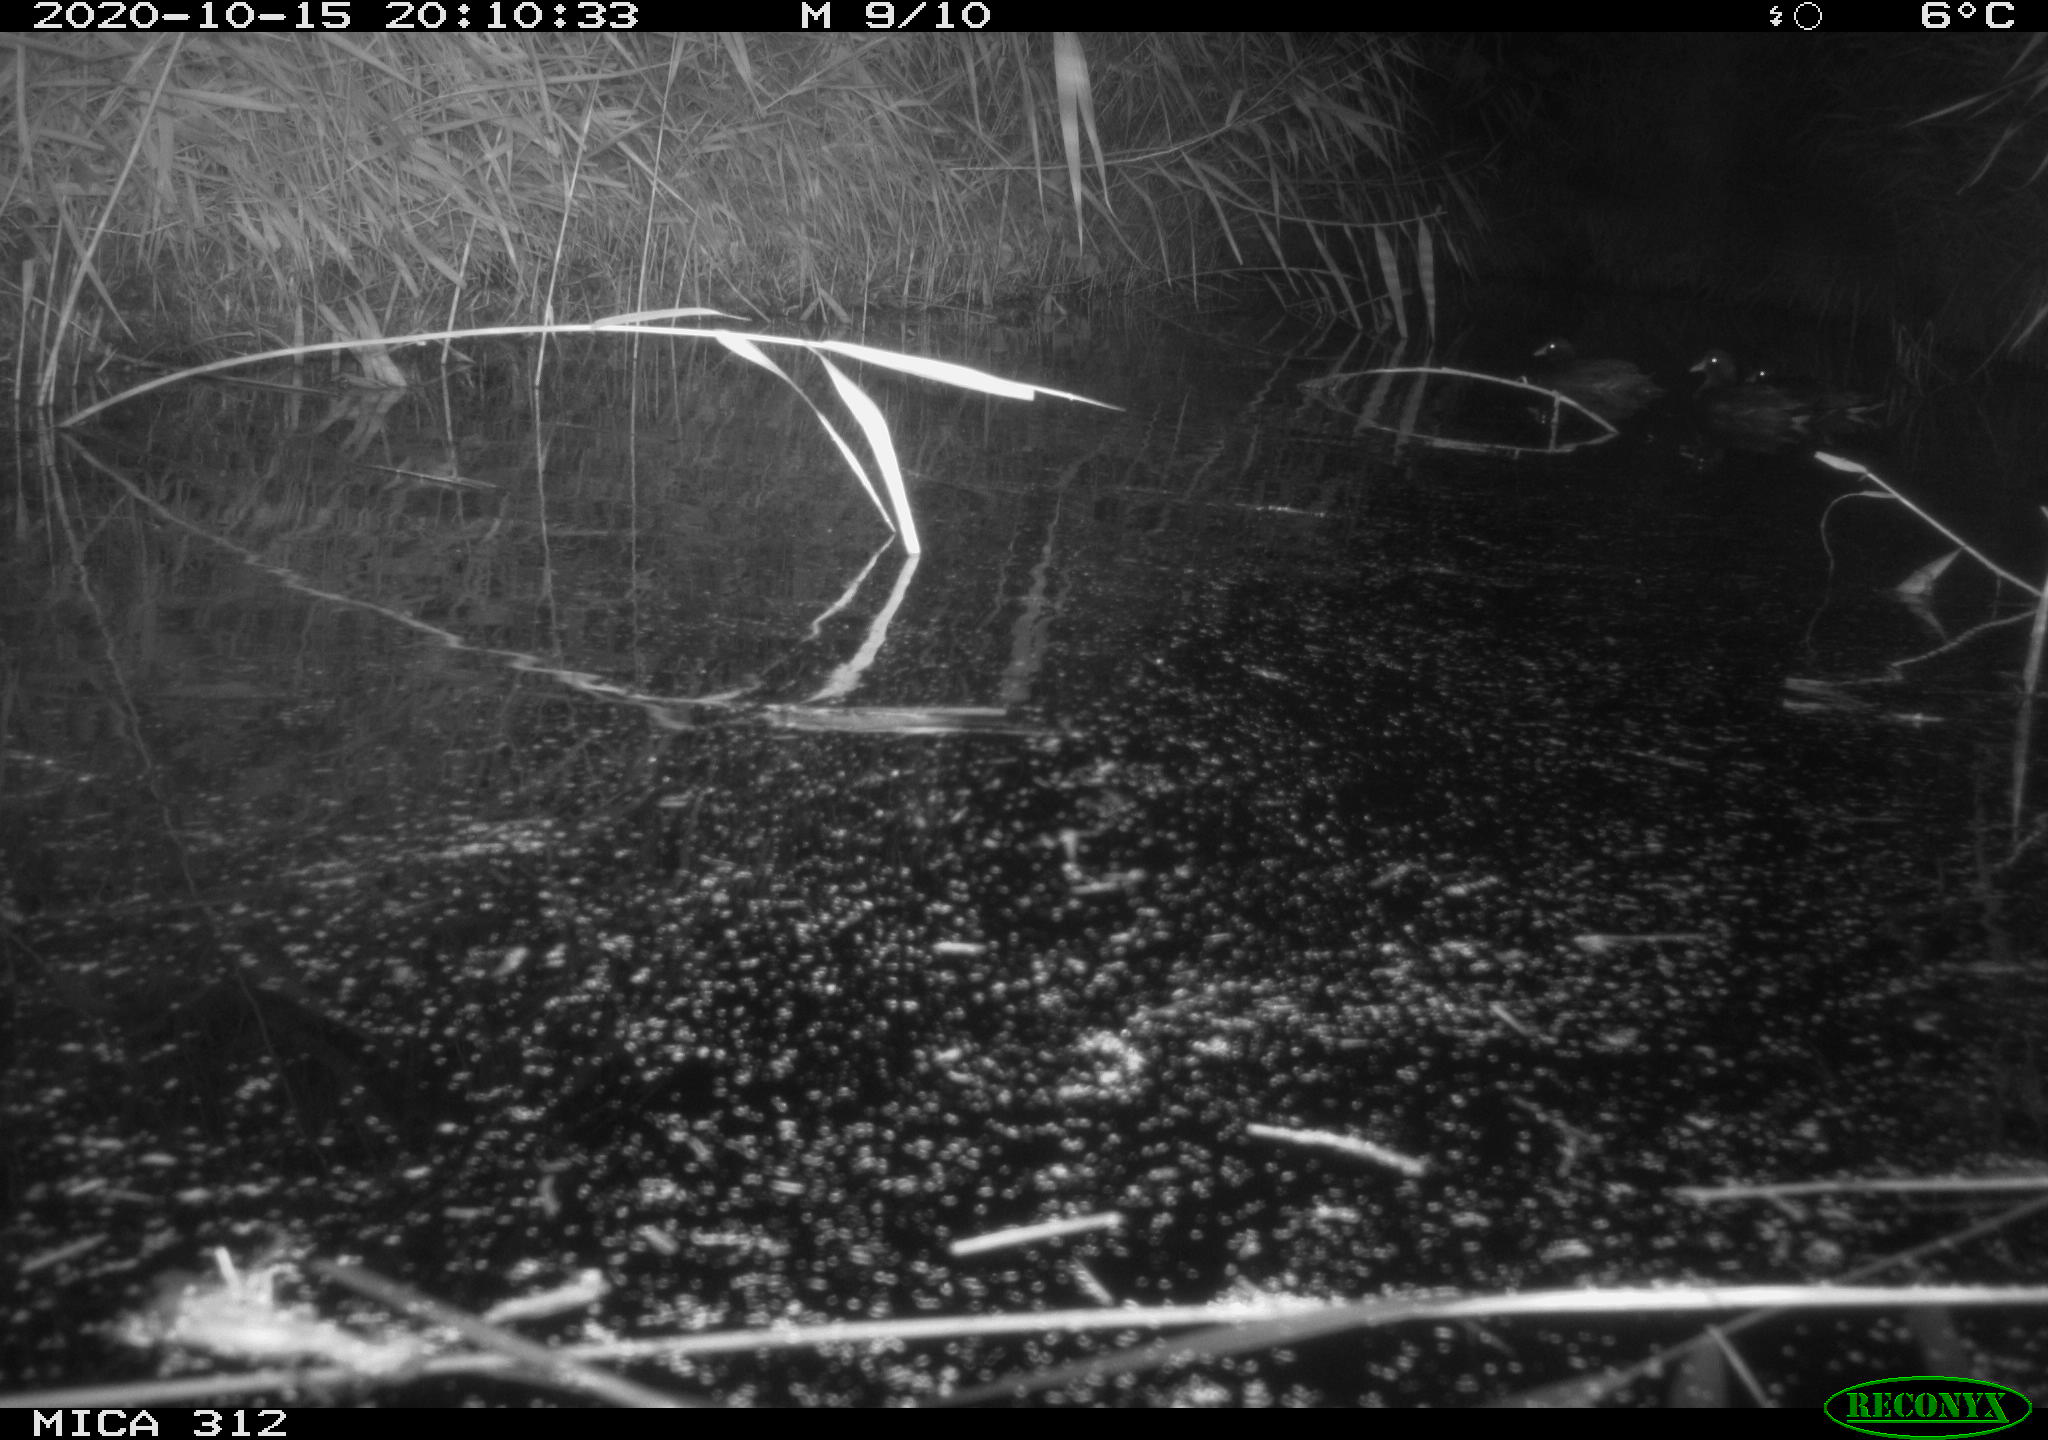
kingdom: Animalia
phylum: Chordata
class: Aves
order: Gruiformes
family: Rallidae
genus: Fulica
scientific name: Fulica atra
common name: Eurasian coot
